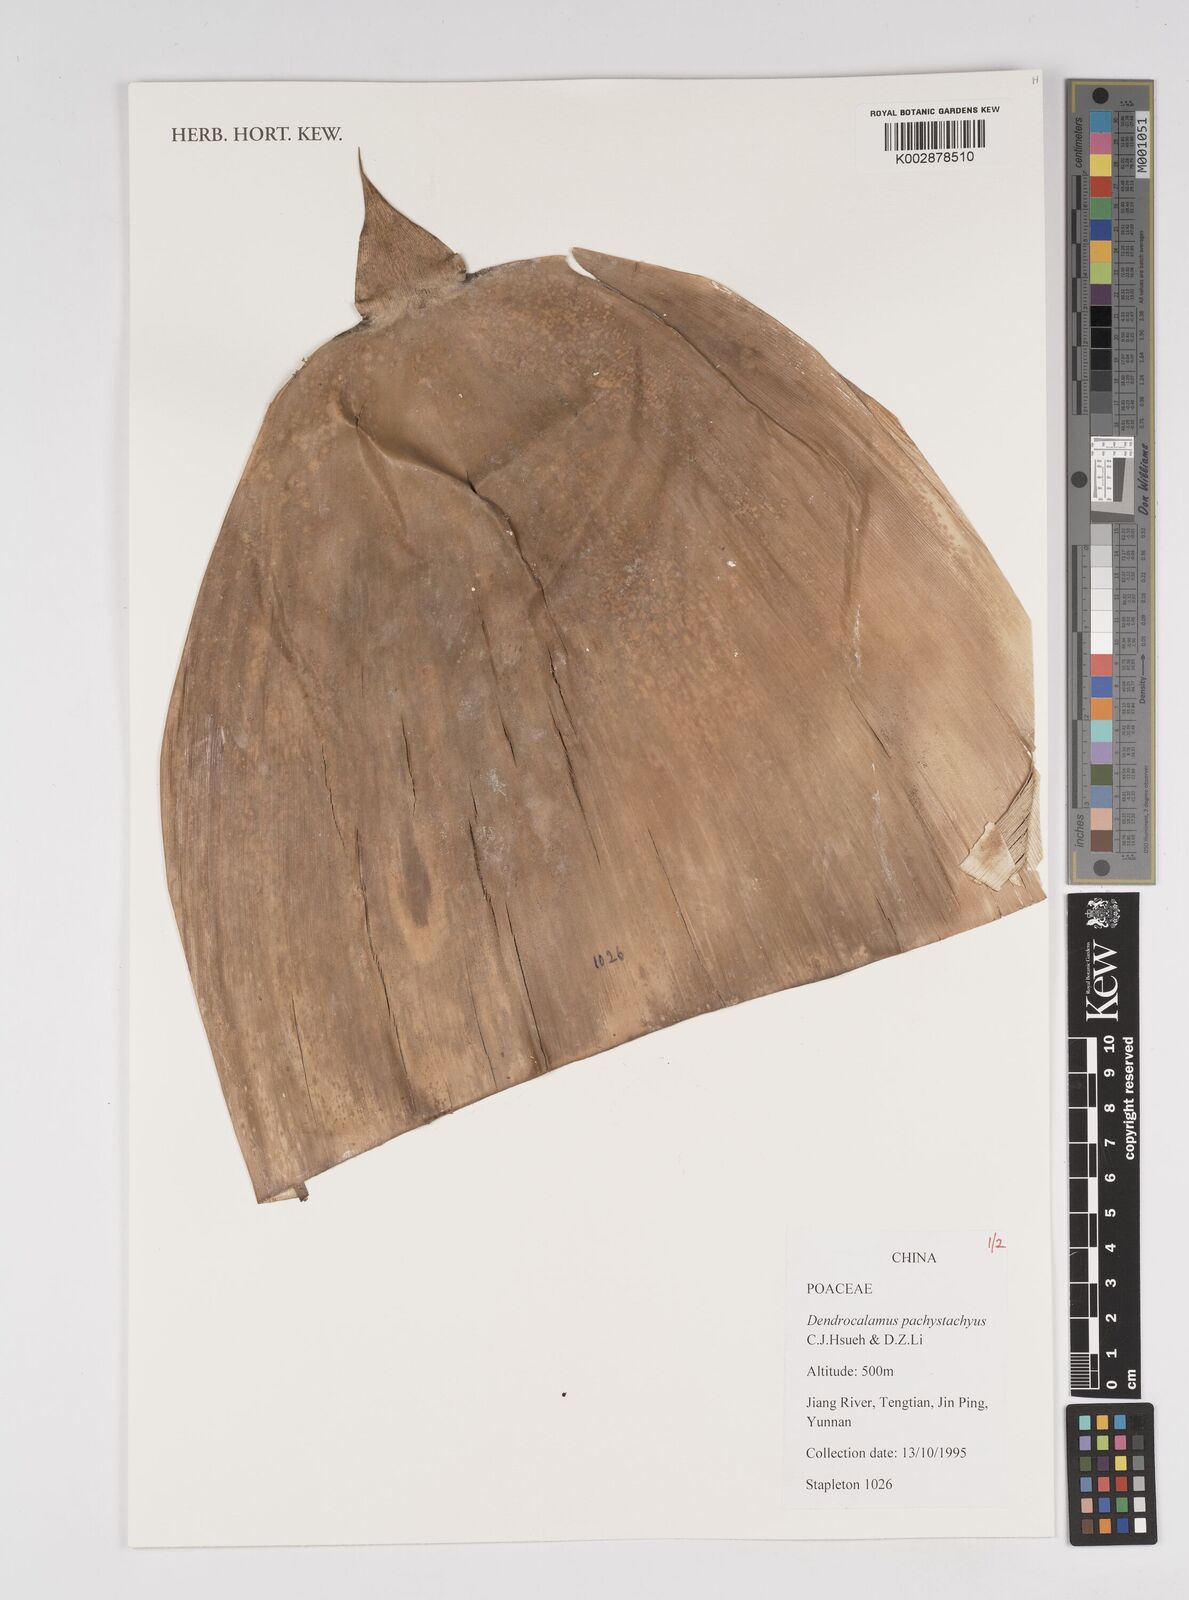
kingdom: Plantae
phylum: Tracheophyta
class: Liliopsida
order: Poales
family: Poaceae
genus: Dendrocalamus
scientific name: Dendrocalamus pachystachyus
